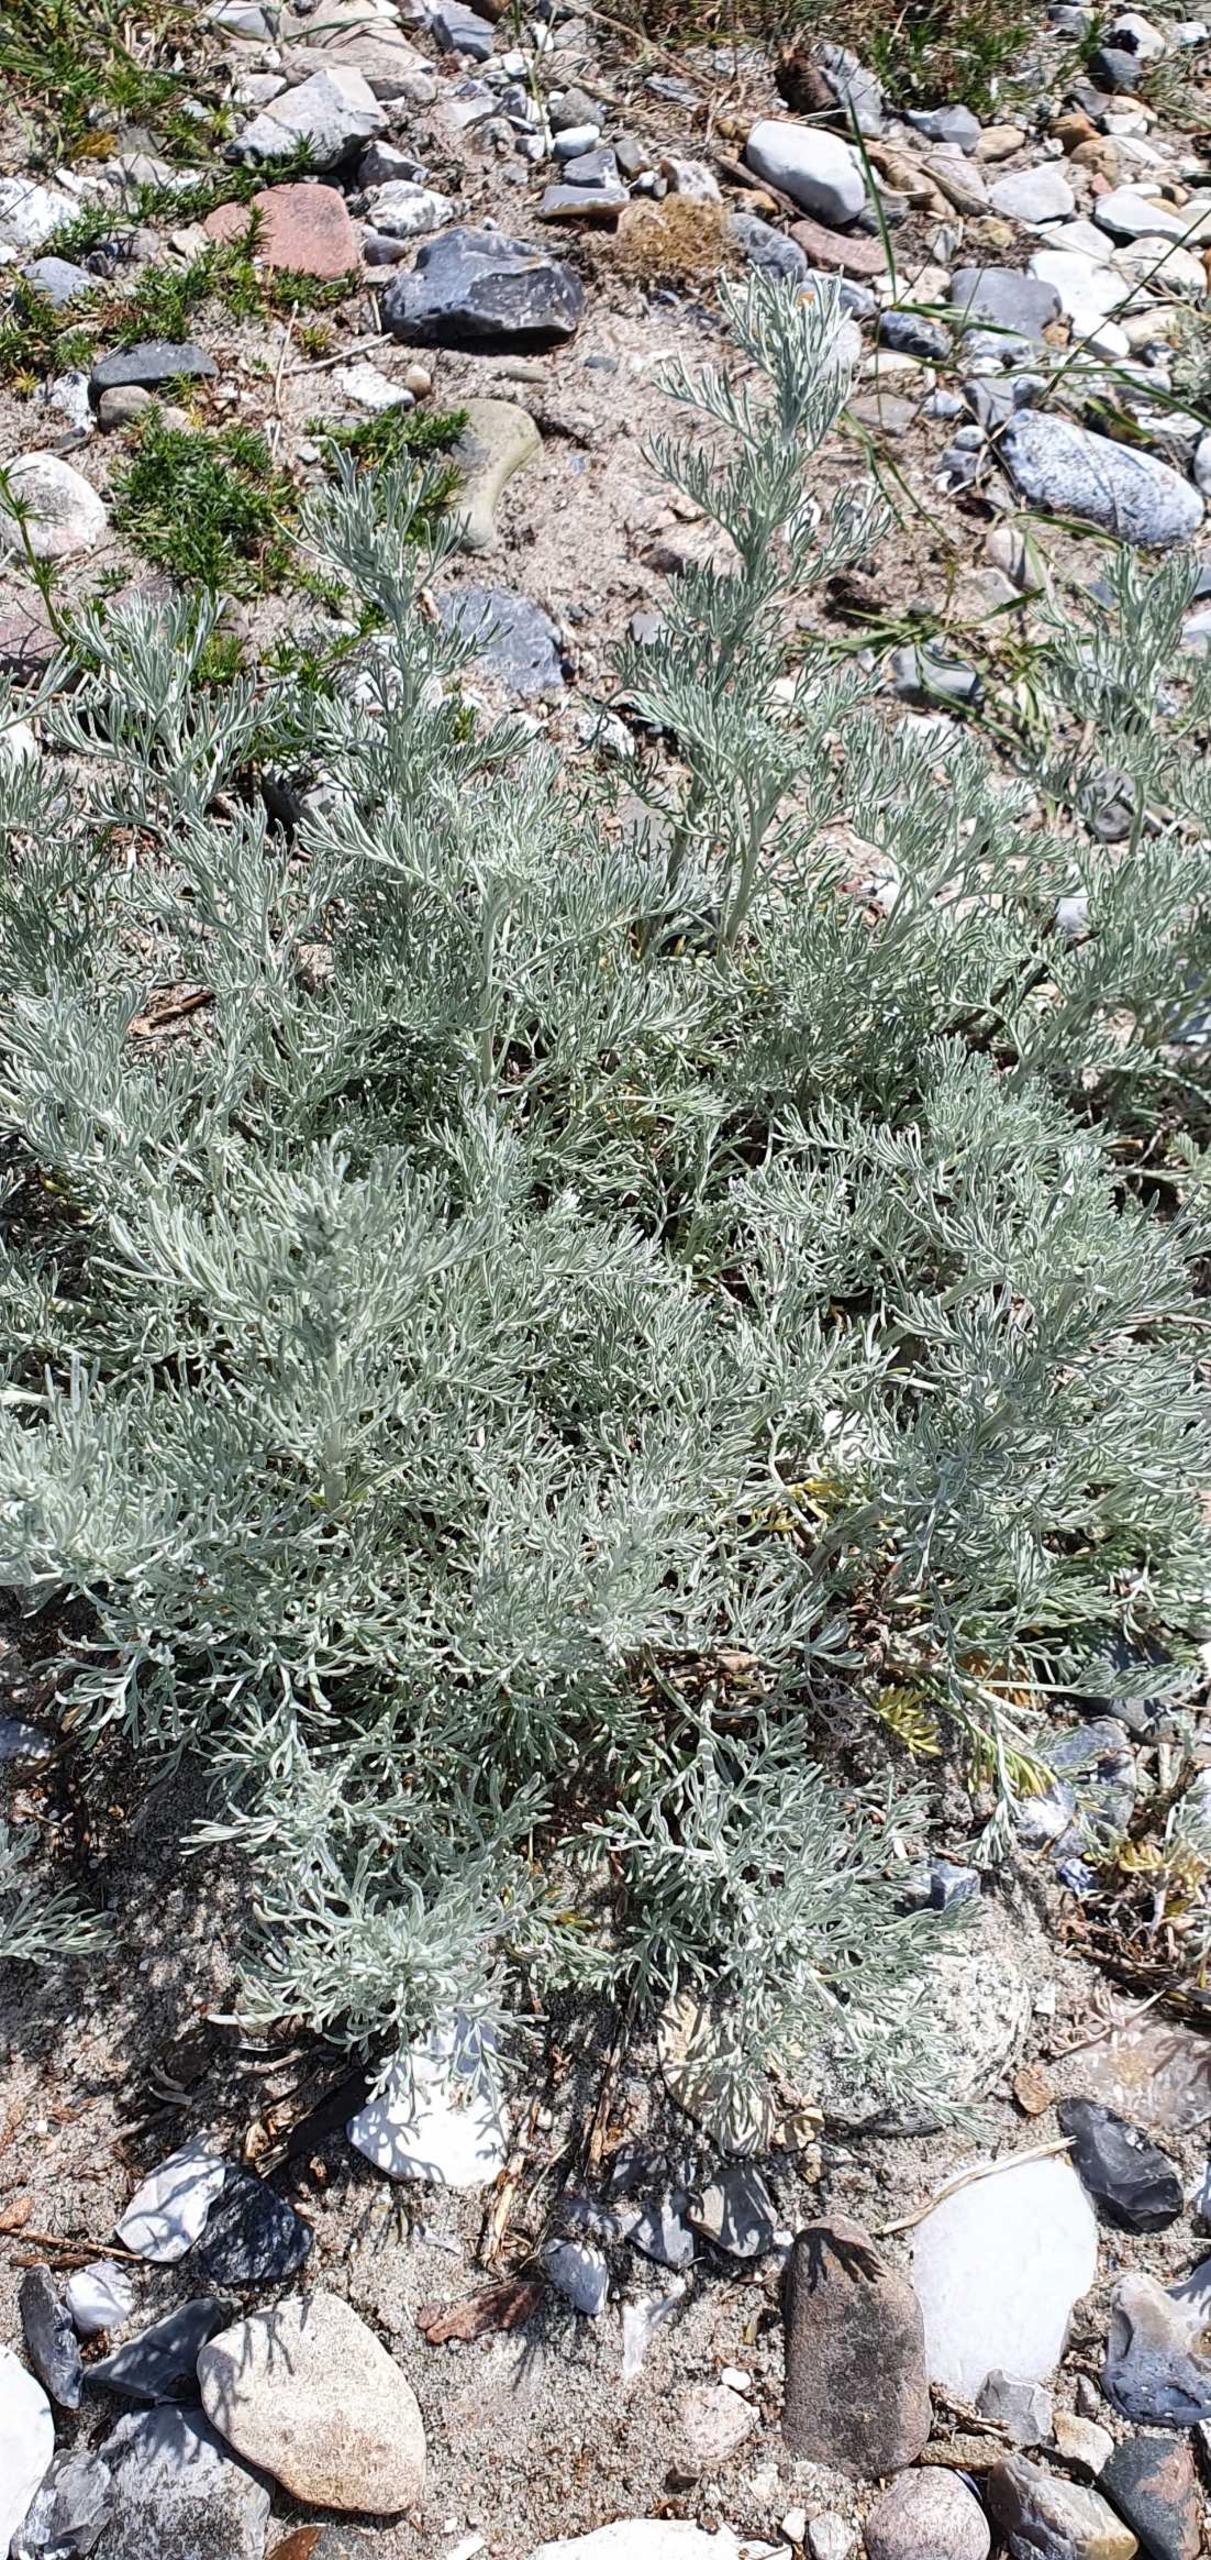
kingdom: Plantae
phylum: Tracheophyta
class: Magnoliopsida
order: Asterales
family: Asteraceae
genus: Artemisia
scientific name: Artemisia maritima
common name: Strandmalurt
